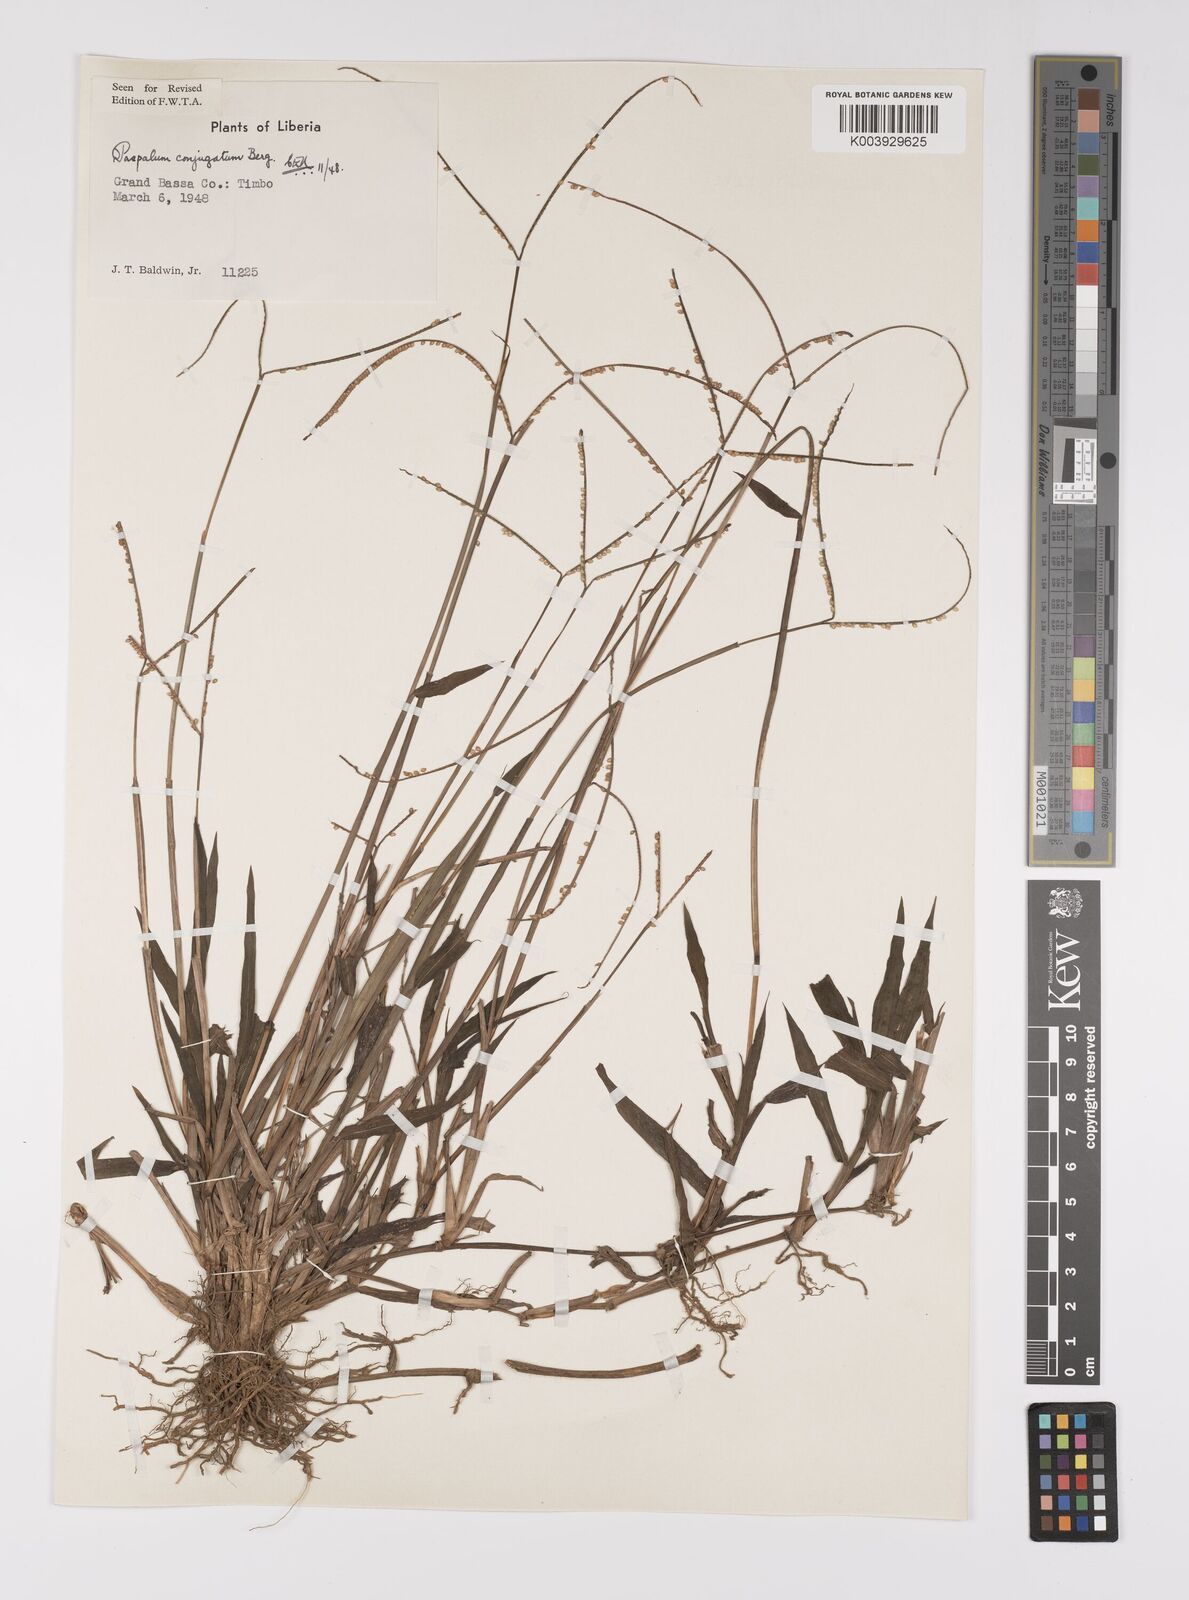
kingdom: Plantae
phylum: Tracheophyta
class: Liliopsida
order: Poales
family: Poaceae
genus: Paspalum
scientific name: Paspalum conjugatum
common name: Hilograss
